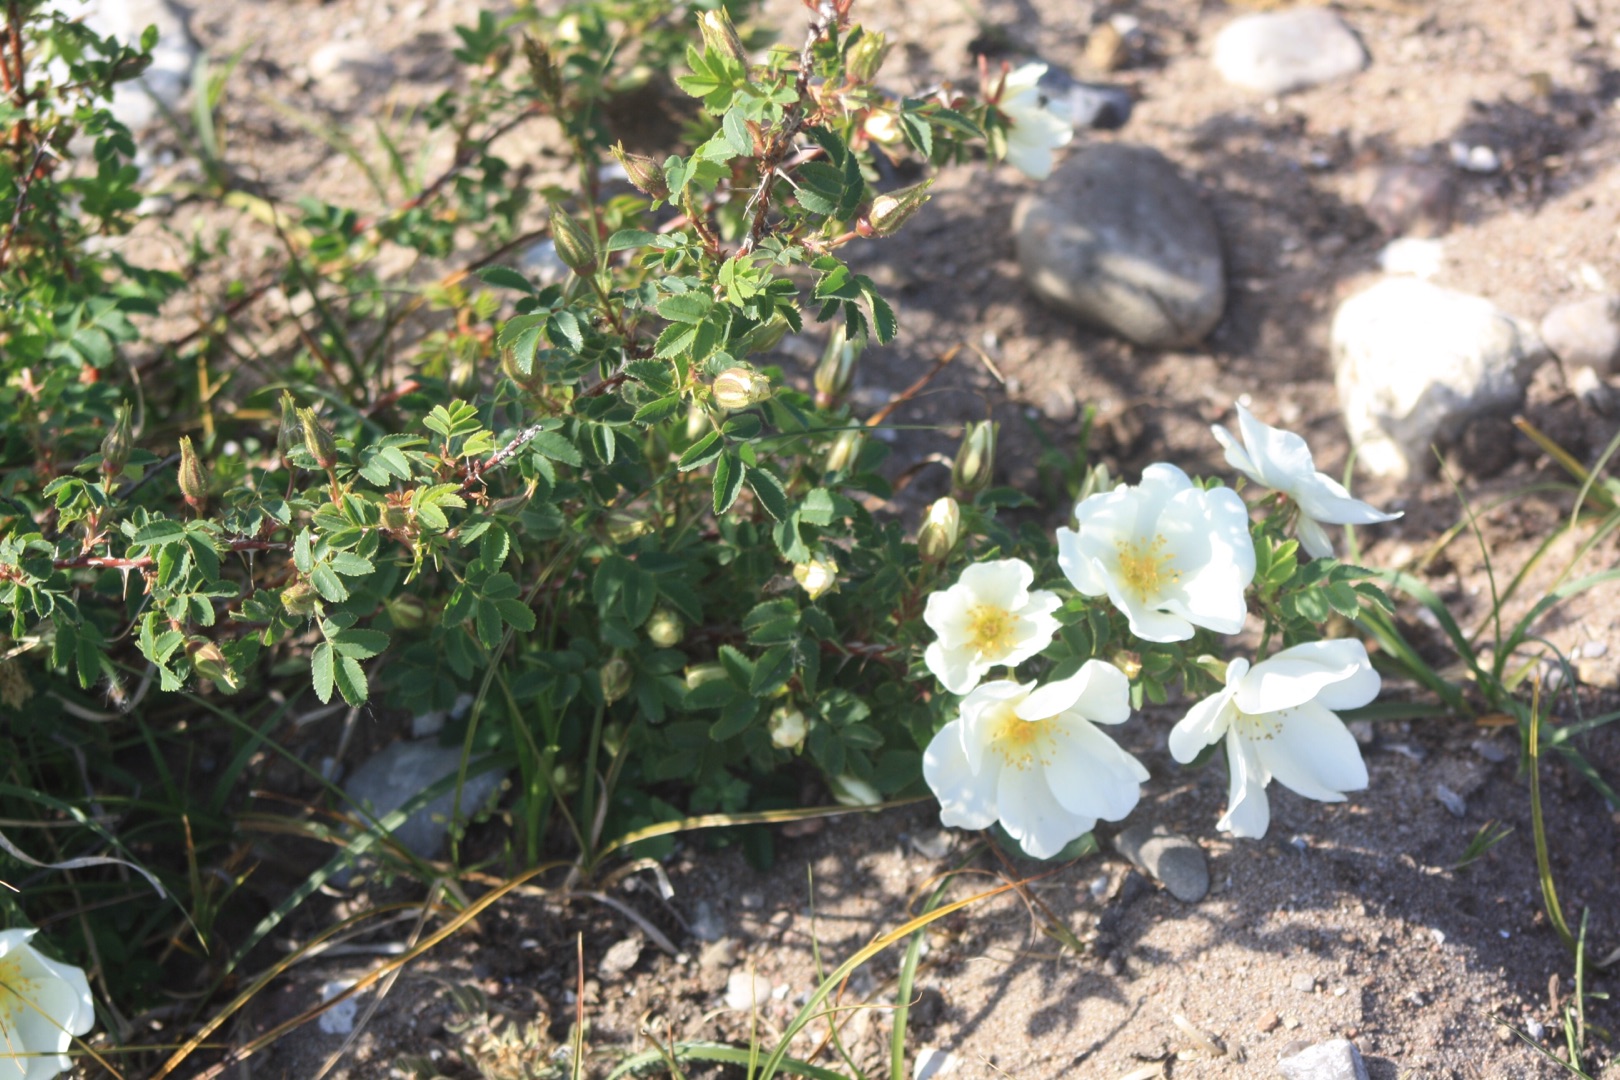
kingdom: Plantae
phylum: Tracheophyta
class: Magnoliopsida
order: Rosales
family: Rosaceae
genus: Rosa
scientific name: Rosa spinosissima
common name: Klit-rose
